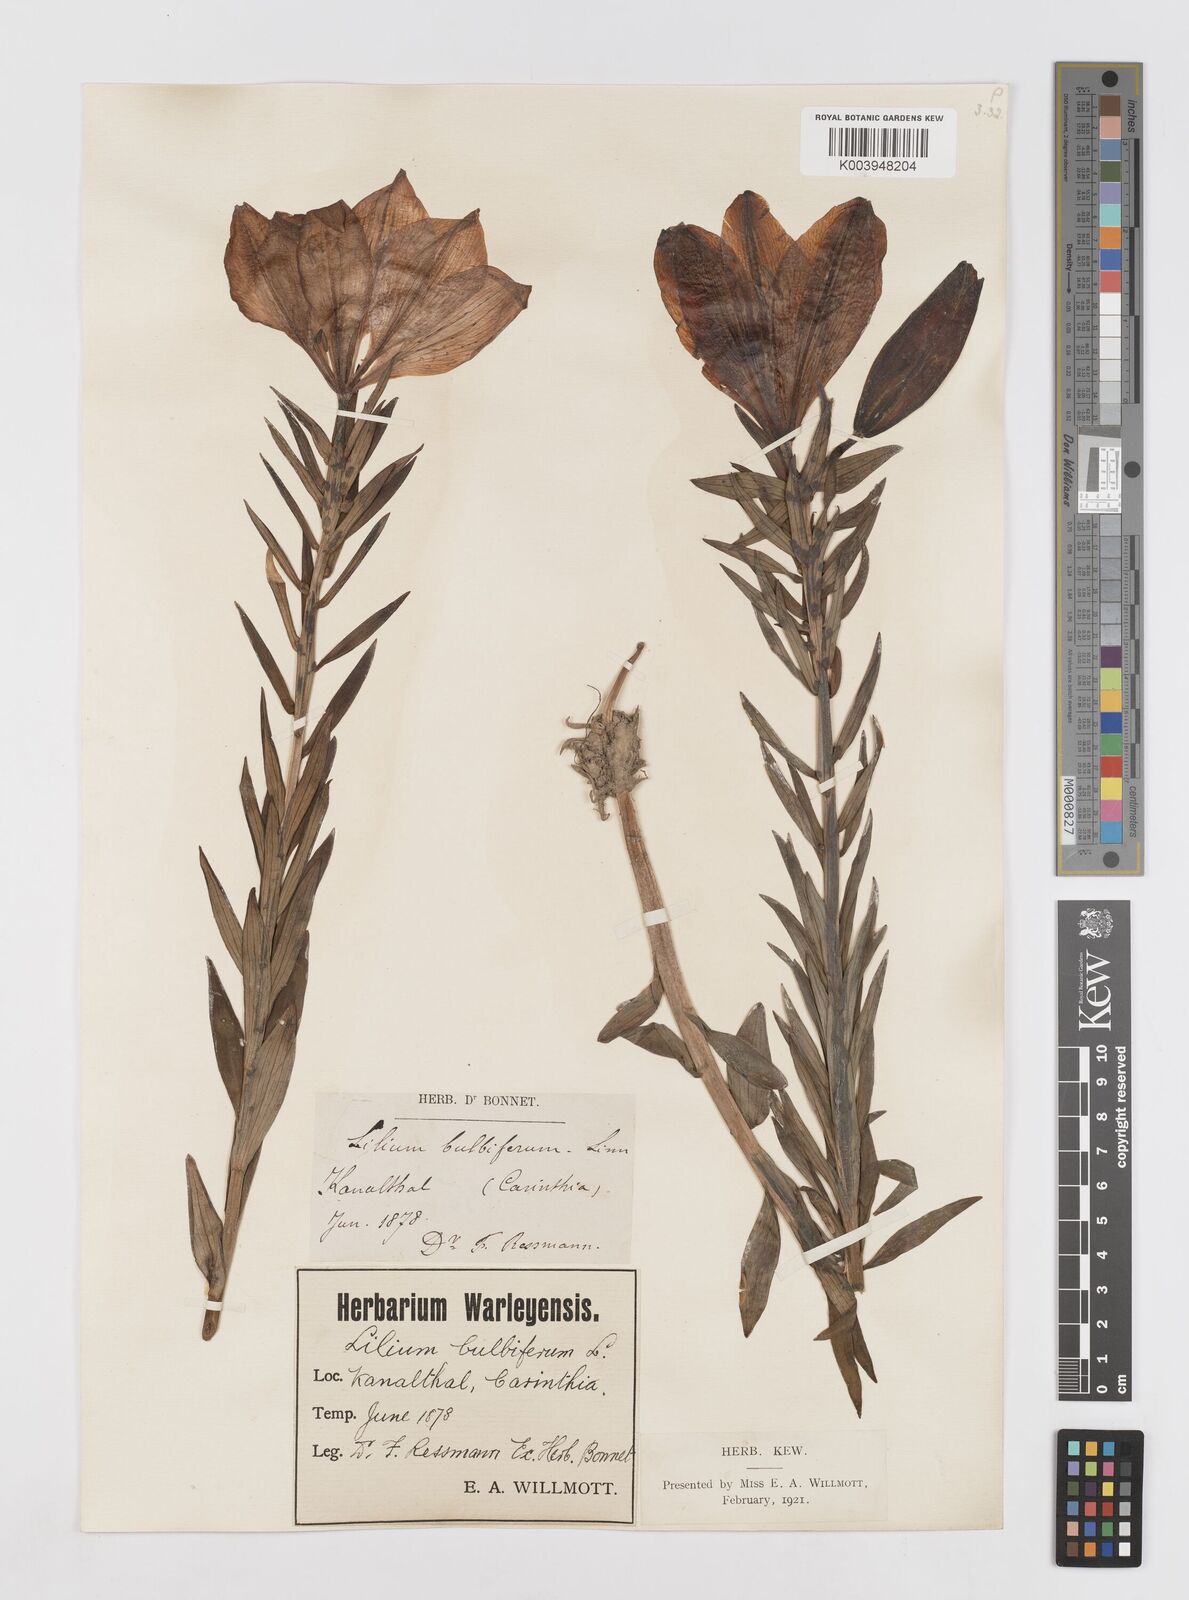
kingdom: Plantae
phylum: Tracheophyta
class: Liliopsida
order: Liliales
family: Liliaceae
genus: Lilium
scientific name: Lilium bulbiferum
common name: Orange lily
